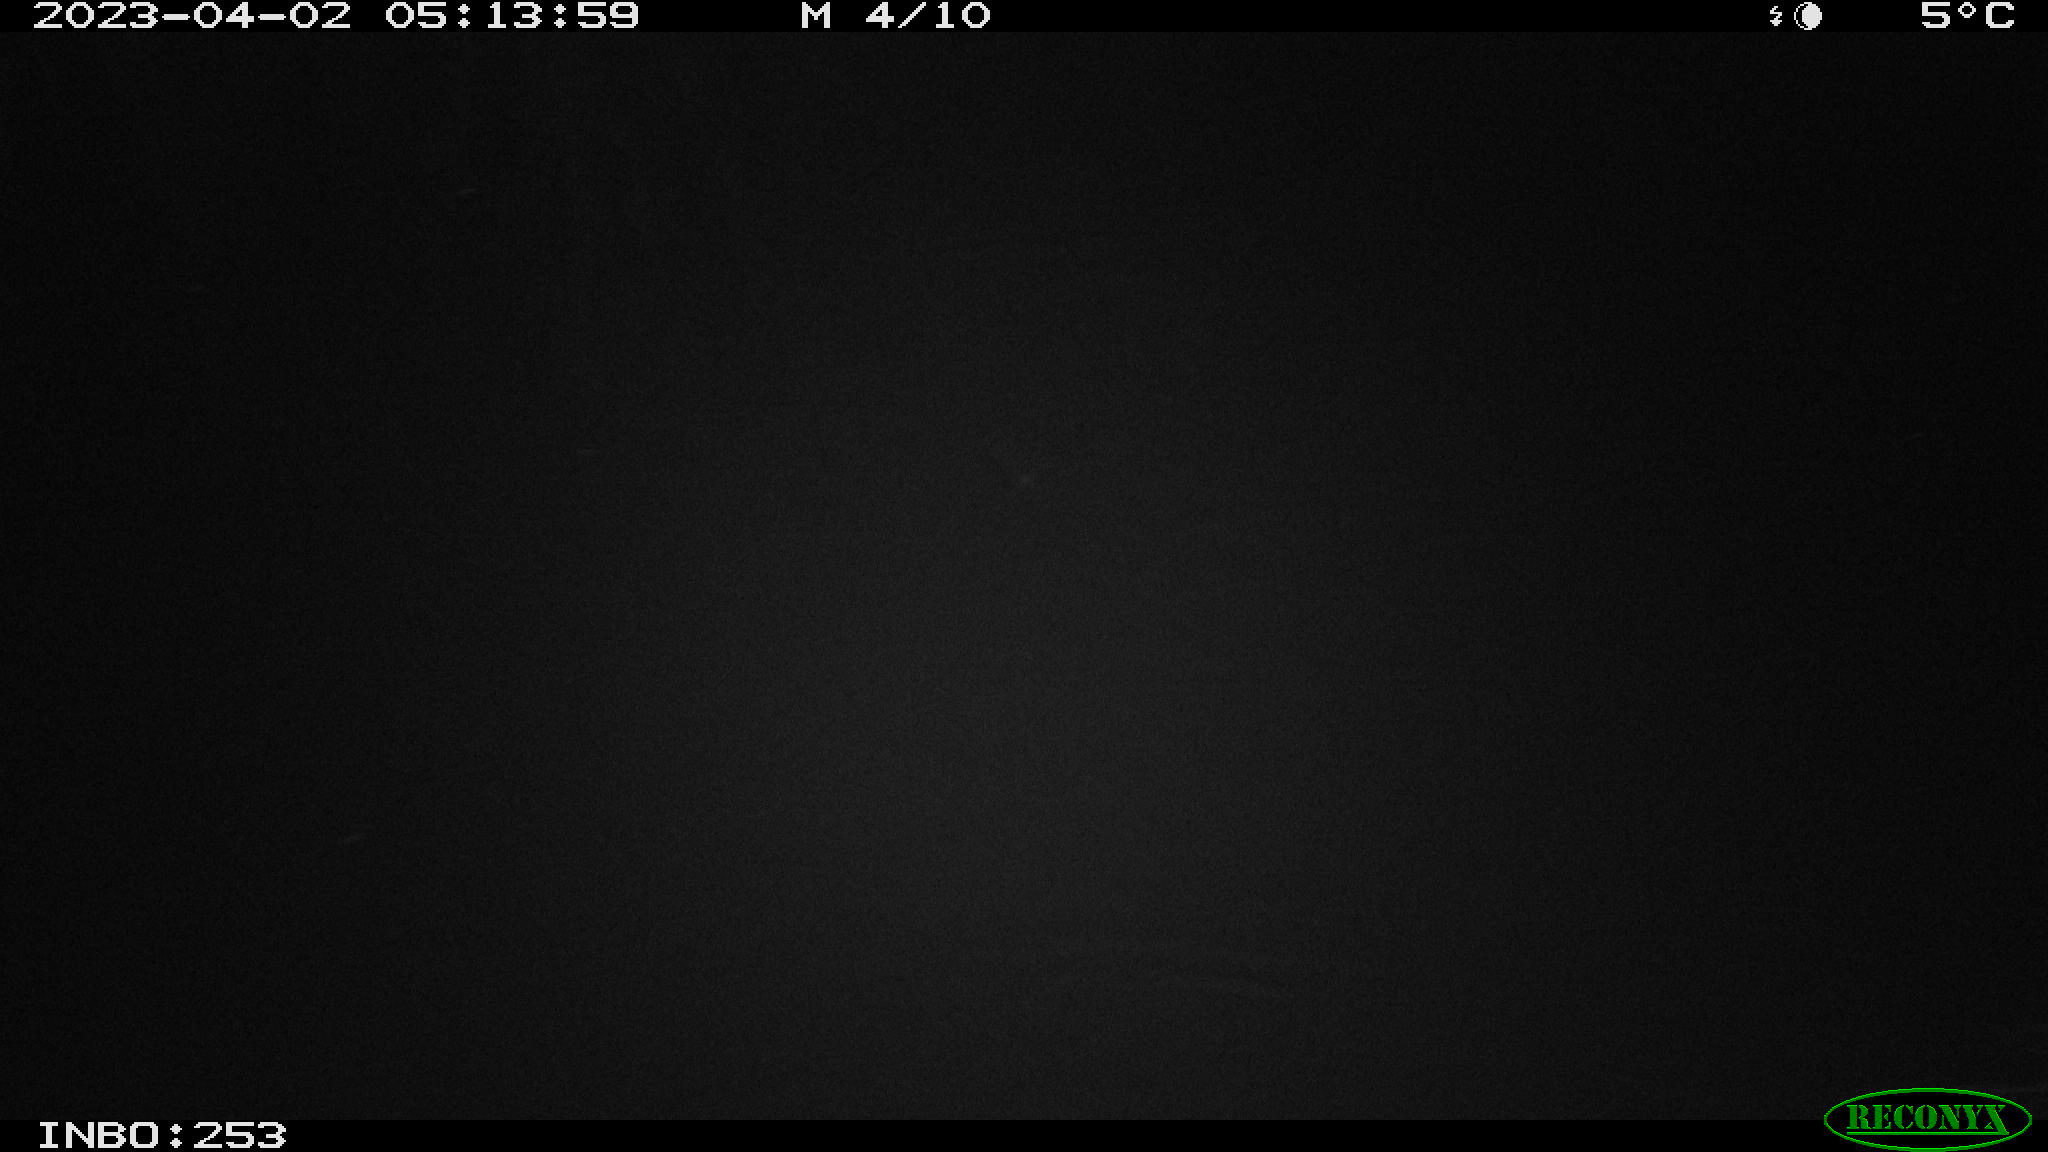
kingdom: Animalia
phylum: Chordata
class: Aves
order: Anseriformes
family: Anatidae
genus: Anas
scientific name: Anas
